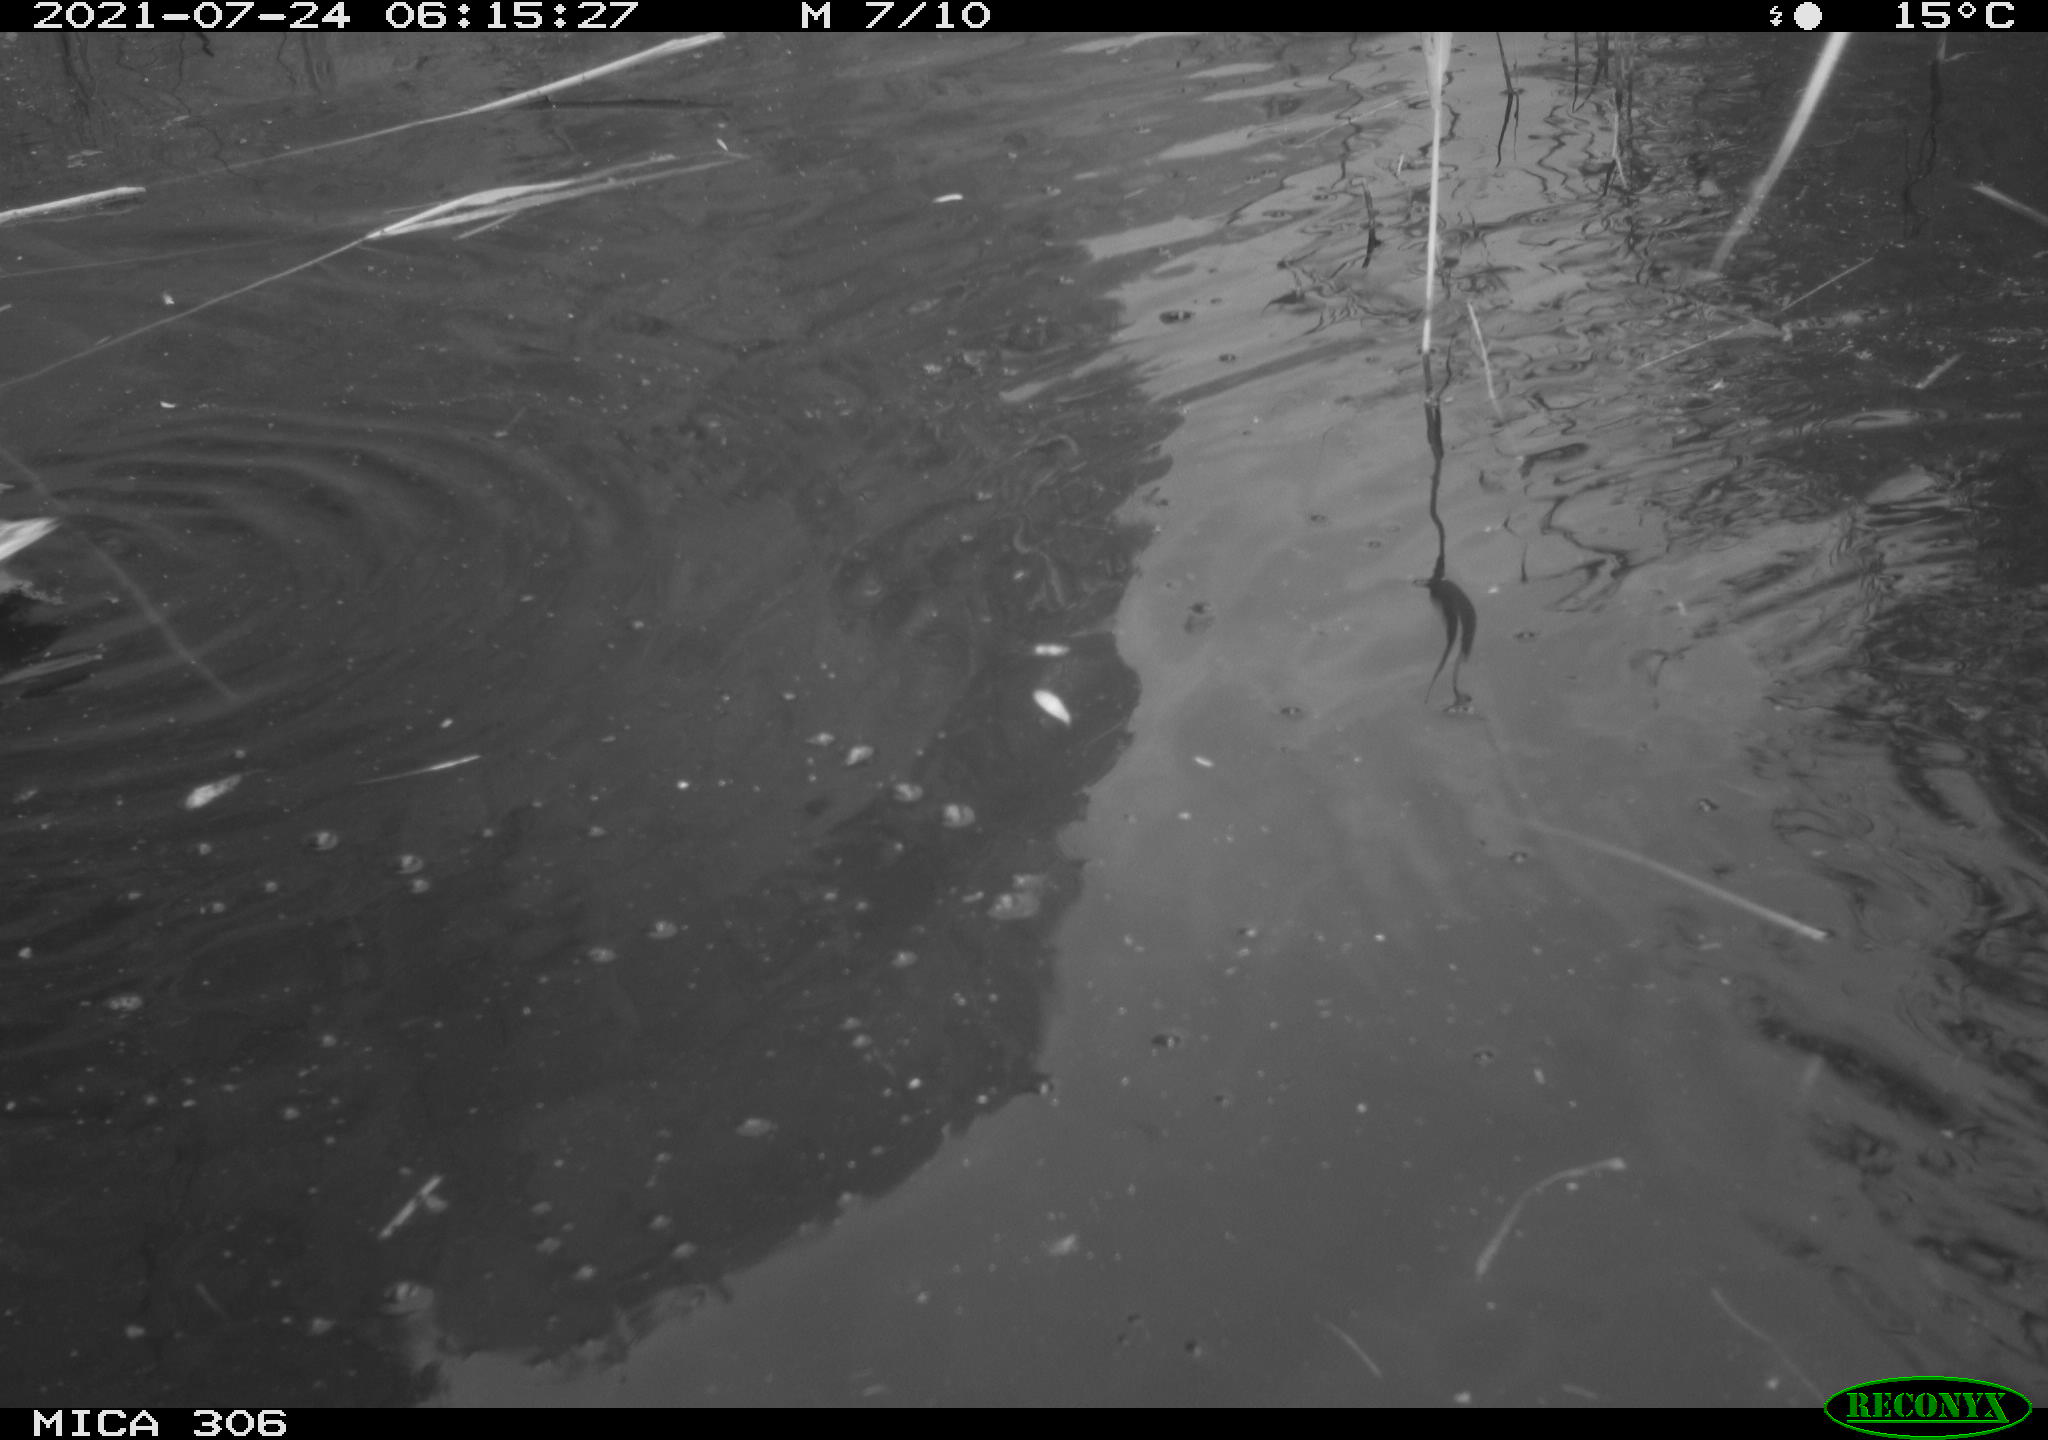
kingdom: Animalia
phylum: Chordata
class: Aves
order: Anseriformes
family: Anatidae
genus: Anas
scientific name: Anas platyrhynchos
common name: Mallard
